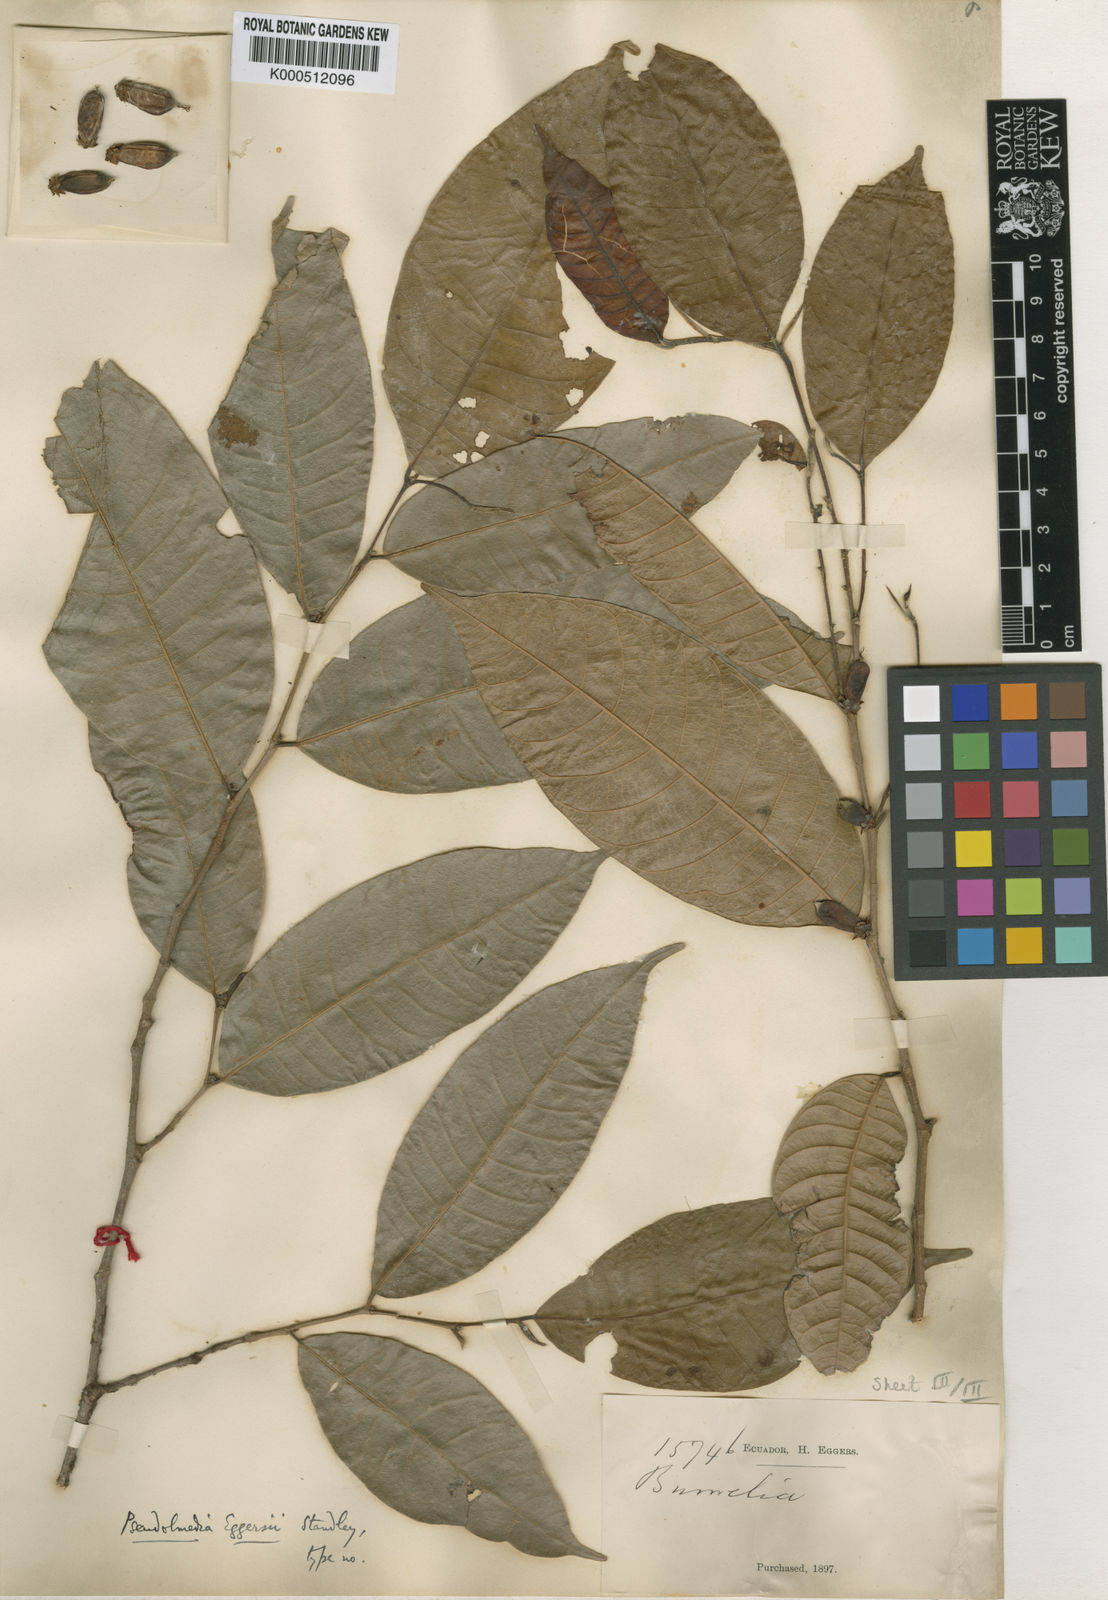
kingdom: Plantae
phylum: Tracheophyta
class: Magnoliopsida
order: Rosales
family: Moraceae
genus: Pseudolmedia
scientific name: Pseudolmedia rigida
